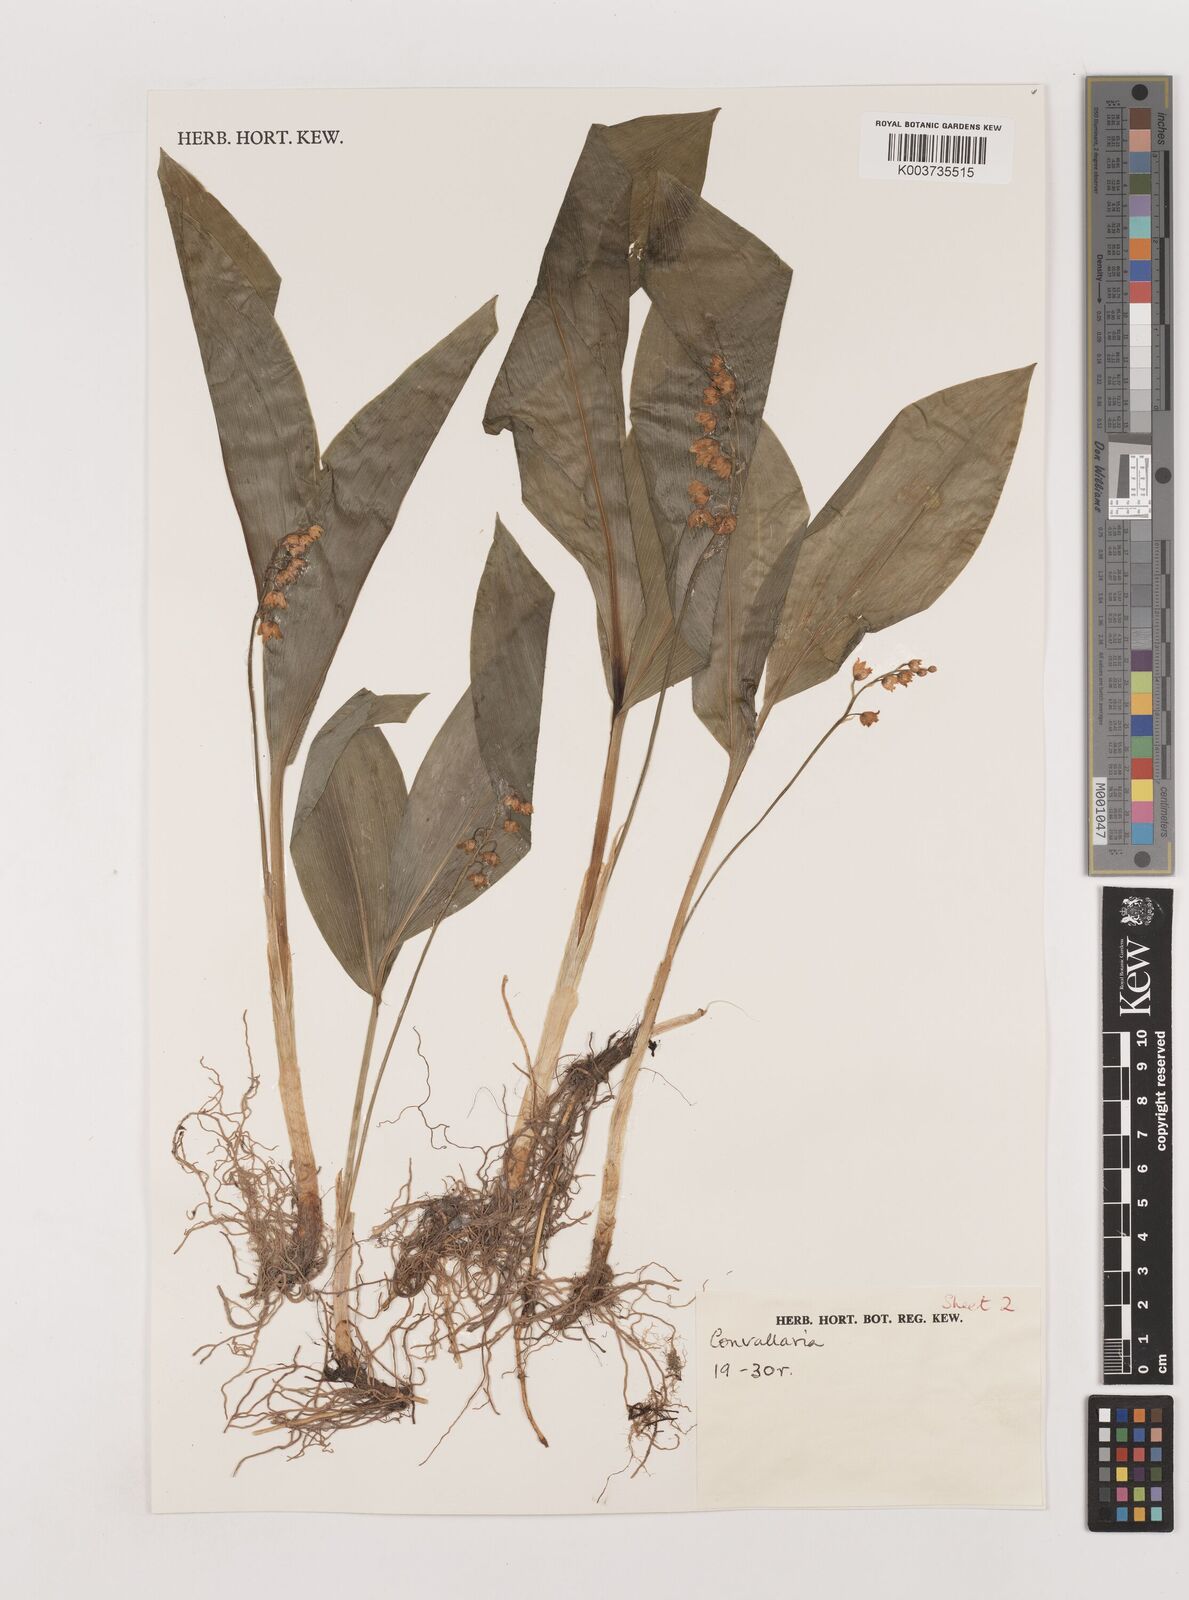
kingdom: Plantae
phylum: Tracheophyta
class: Liliopsida
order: Asparagales
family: Asparagaceae
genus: Convallaria
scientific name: Convallaria keiskei
